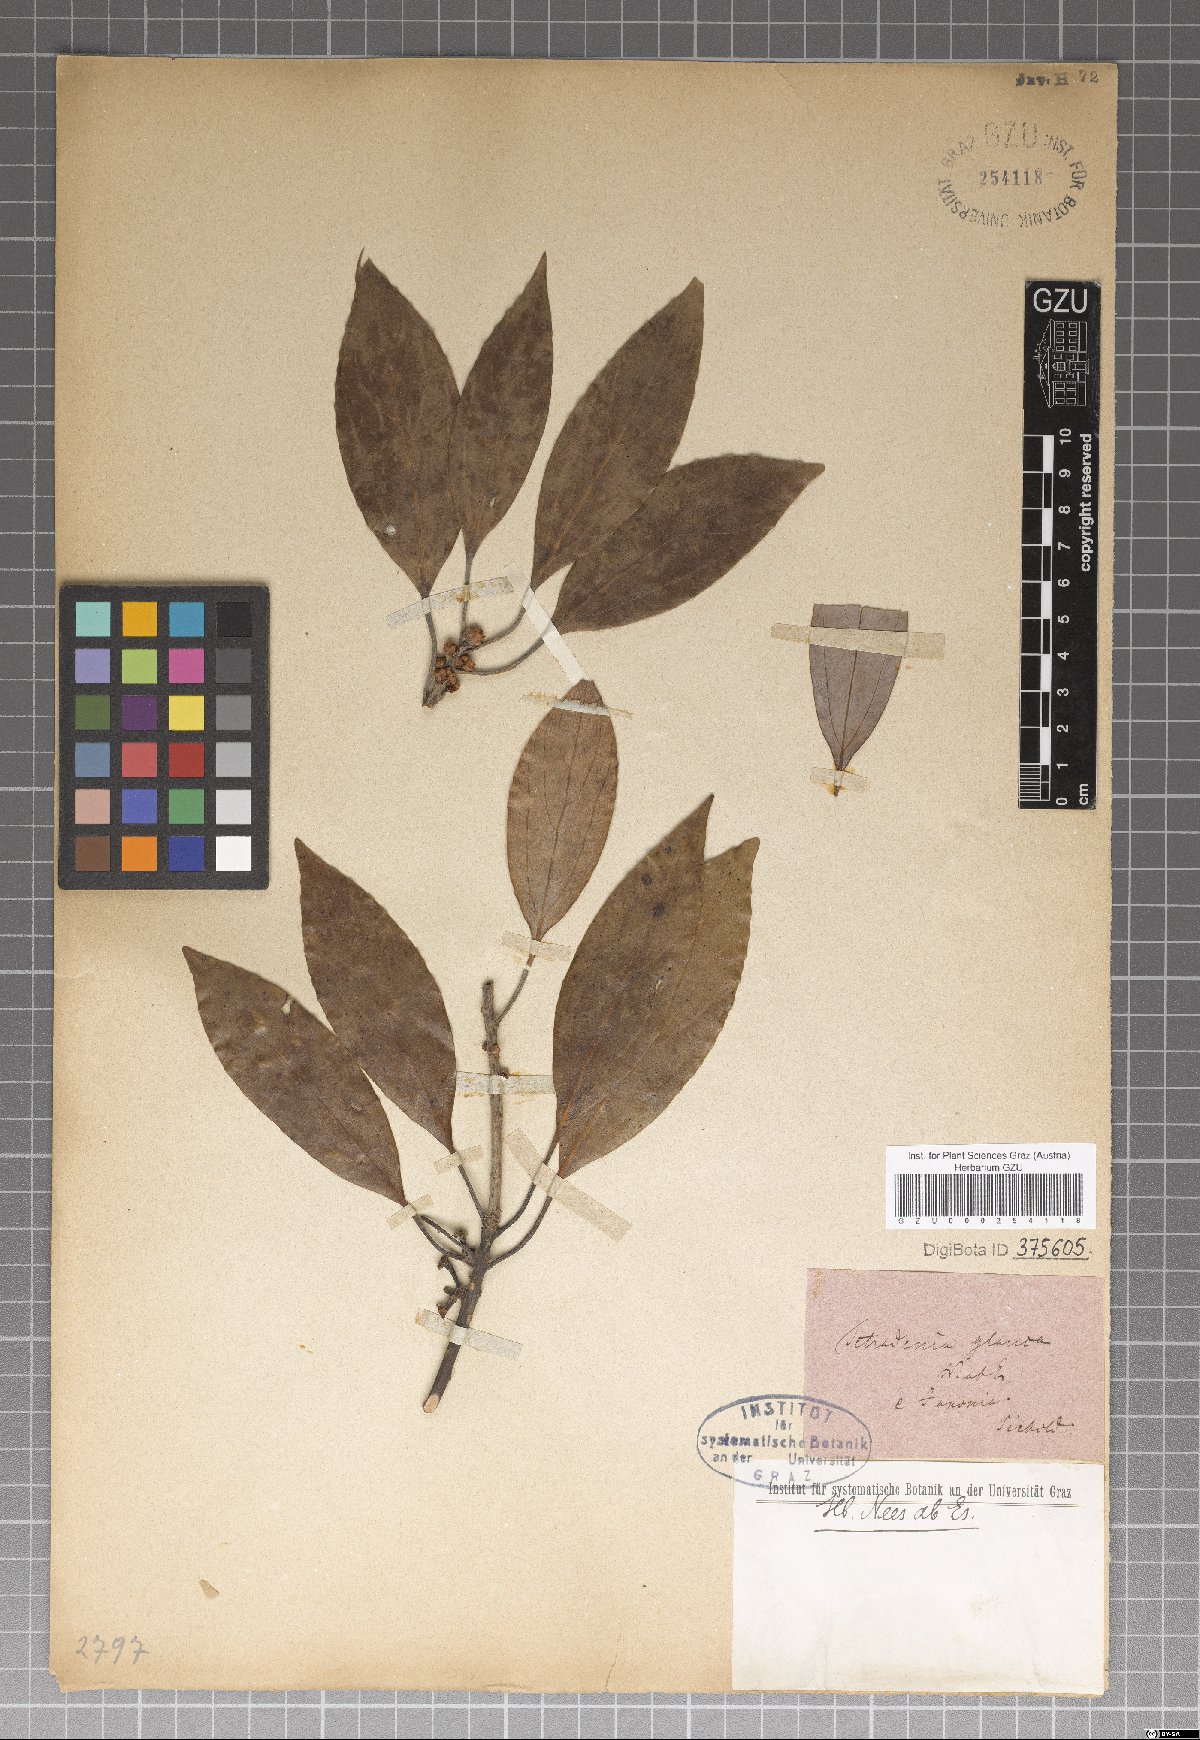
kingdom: Plantae
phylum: Tracheophyta
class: Magnoliopsida
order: Laurales
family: Lauraceae
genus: Neolitsea
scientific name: Neolitsea sericea
